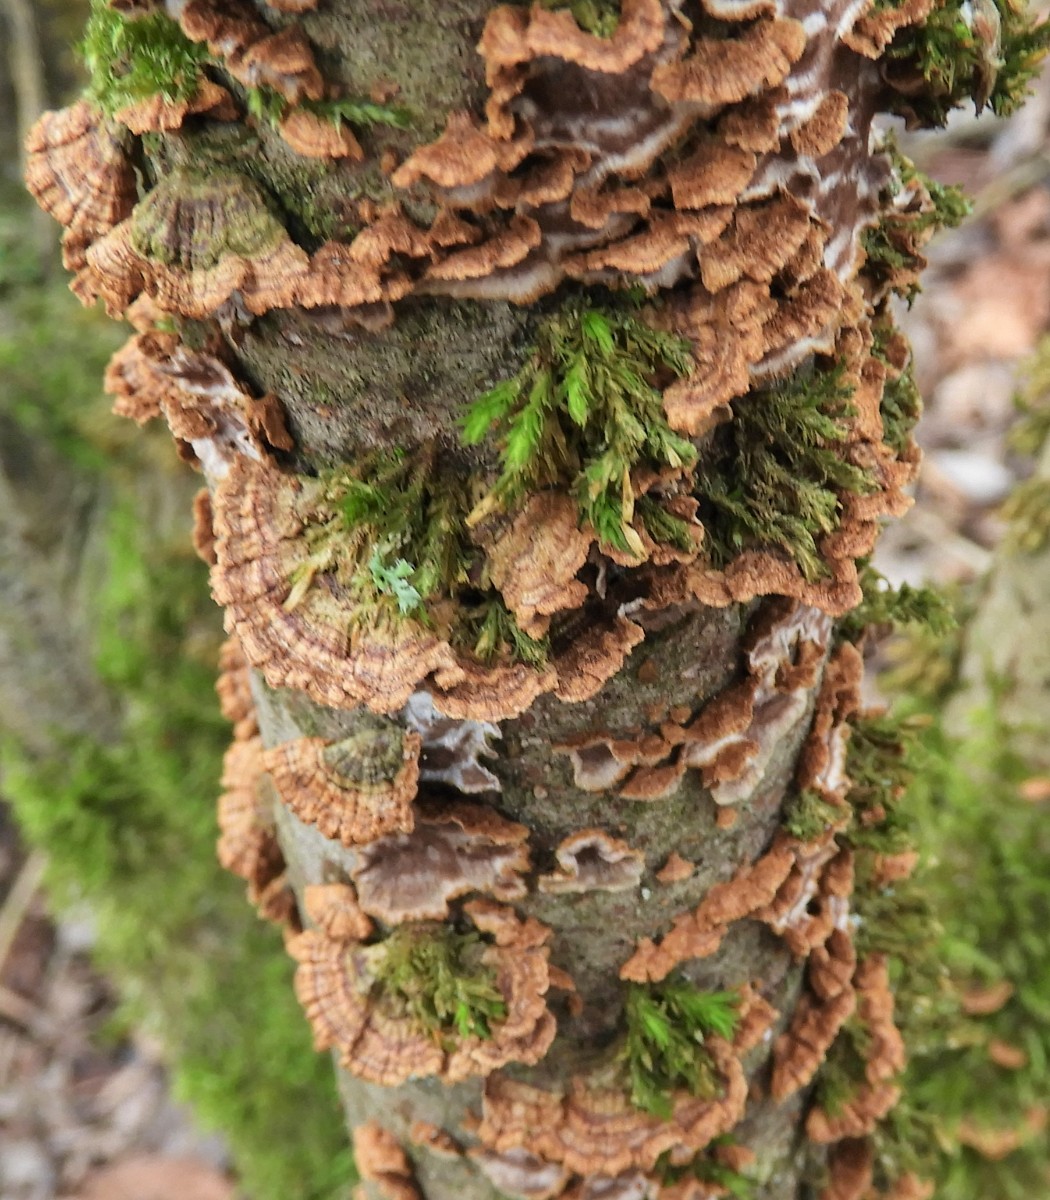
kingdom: Fungi
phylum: Basidiomycota
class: Agaricomycetes
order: Hymenochaetales
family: Hymenochaetaceae
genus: Hydnoporia
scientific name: Hydnoporia tabacina
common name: tobaksbrun ruslædersvamp
